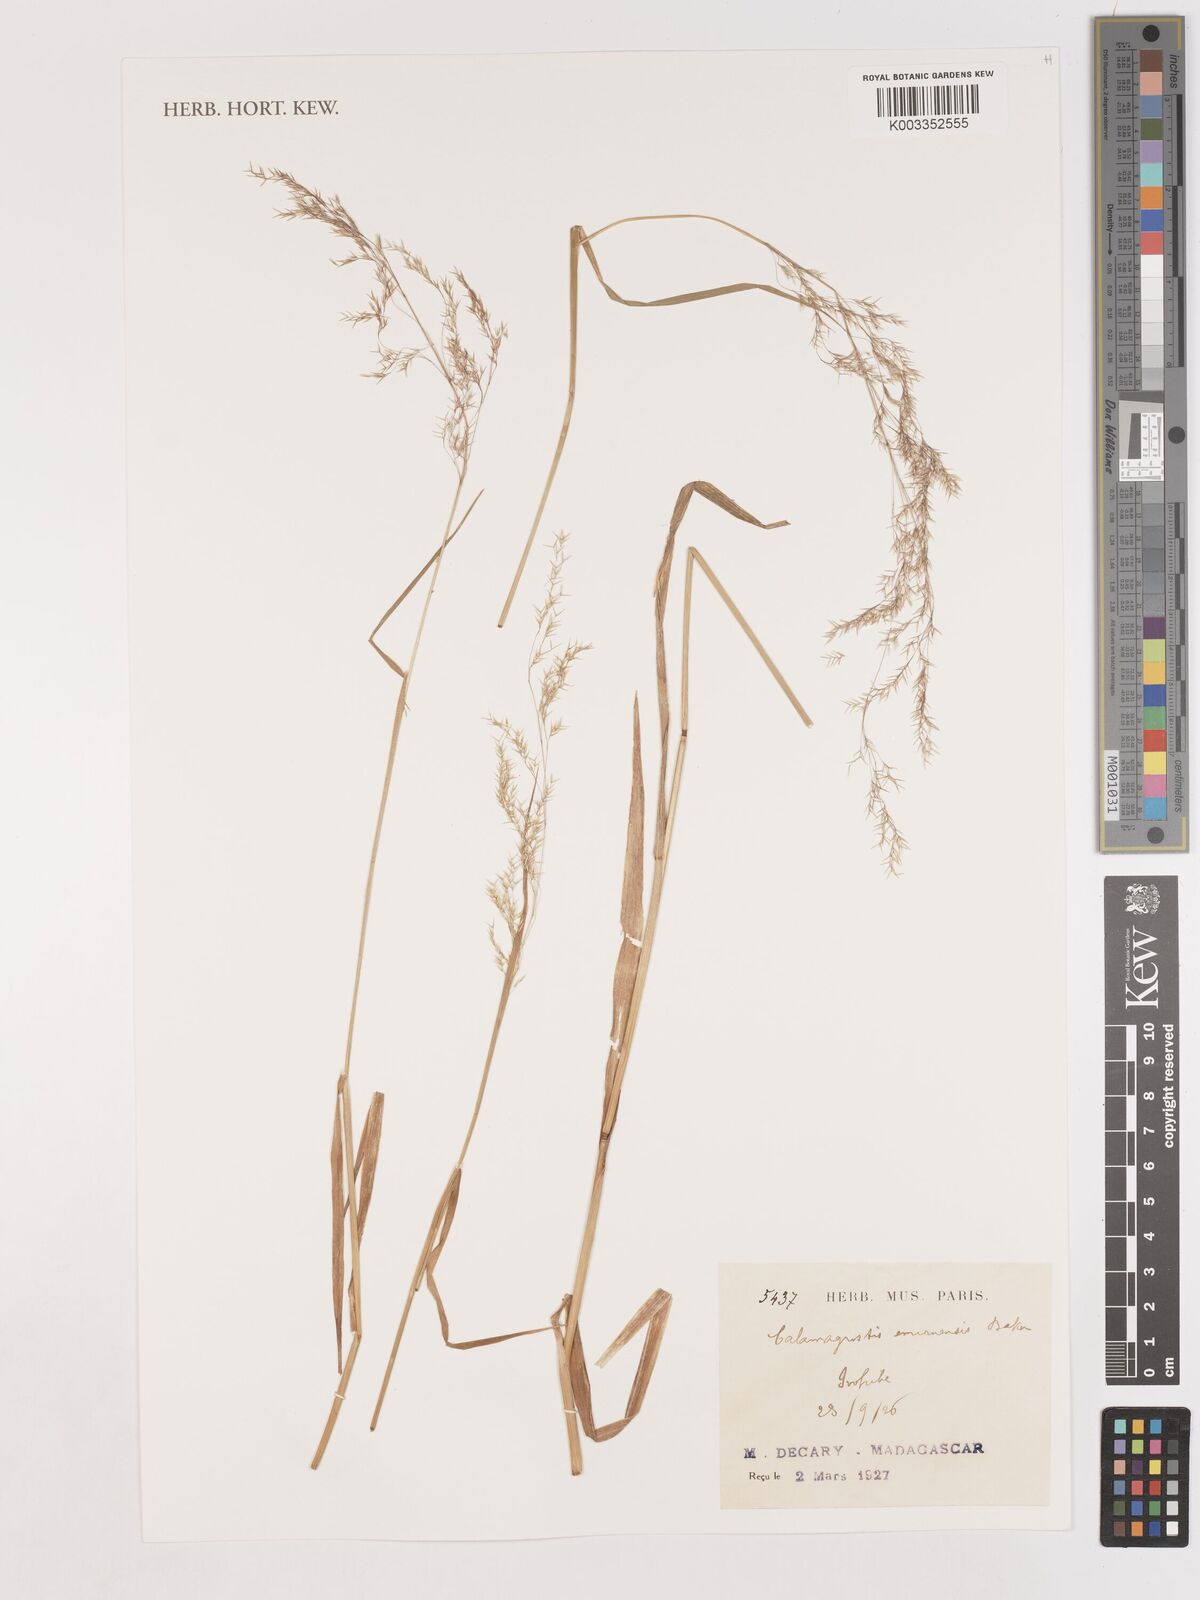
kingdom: Plantae
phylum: Tracheophyta
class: Liliopsida
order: Poales
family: Poaceae
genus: Agrostis
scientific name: Agrostis emirnensis
